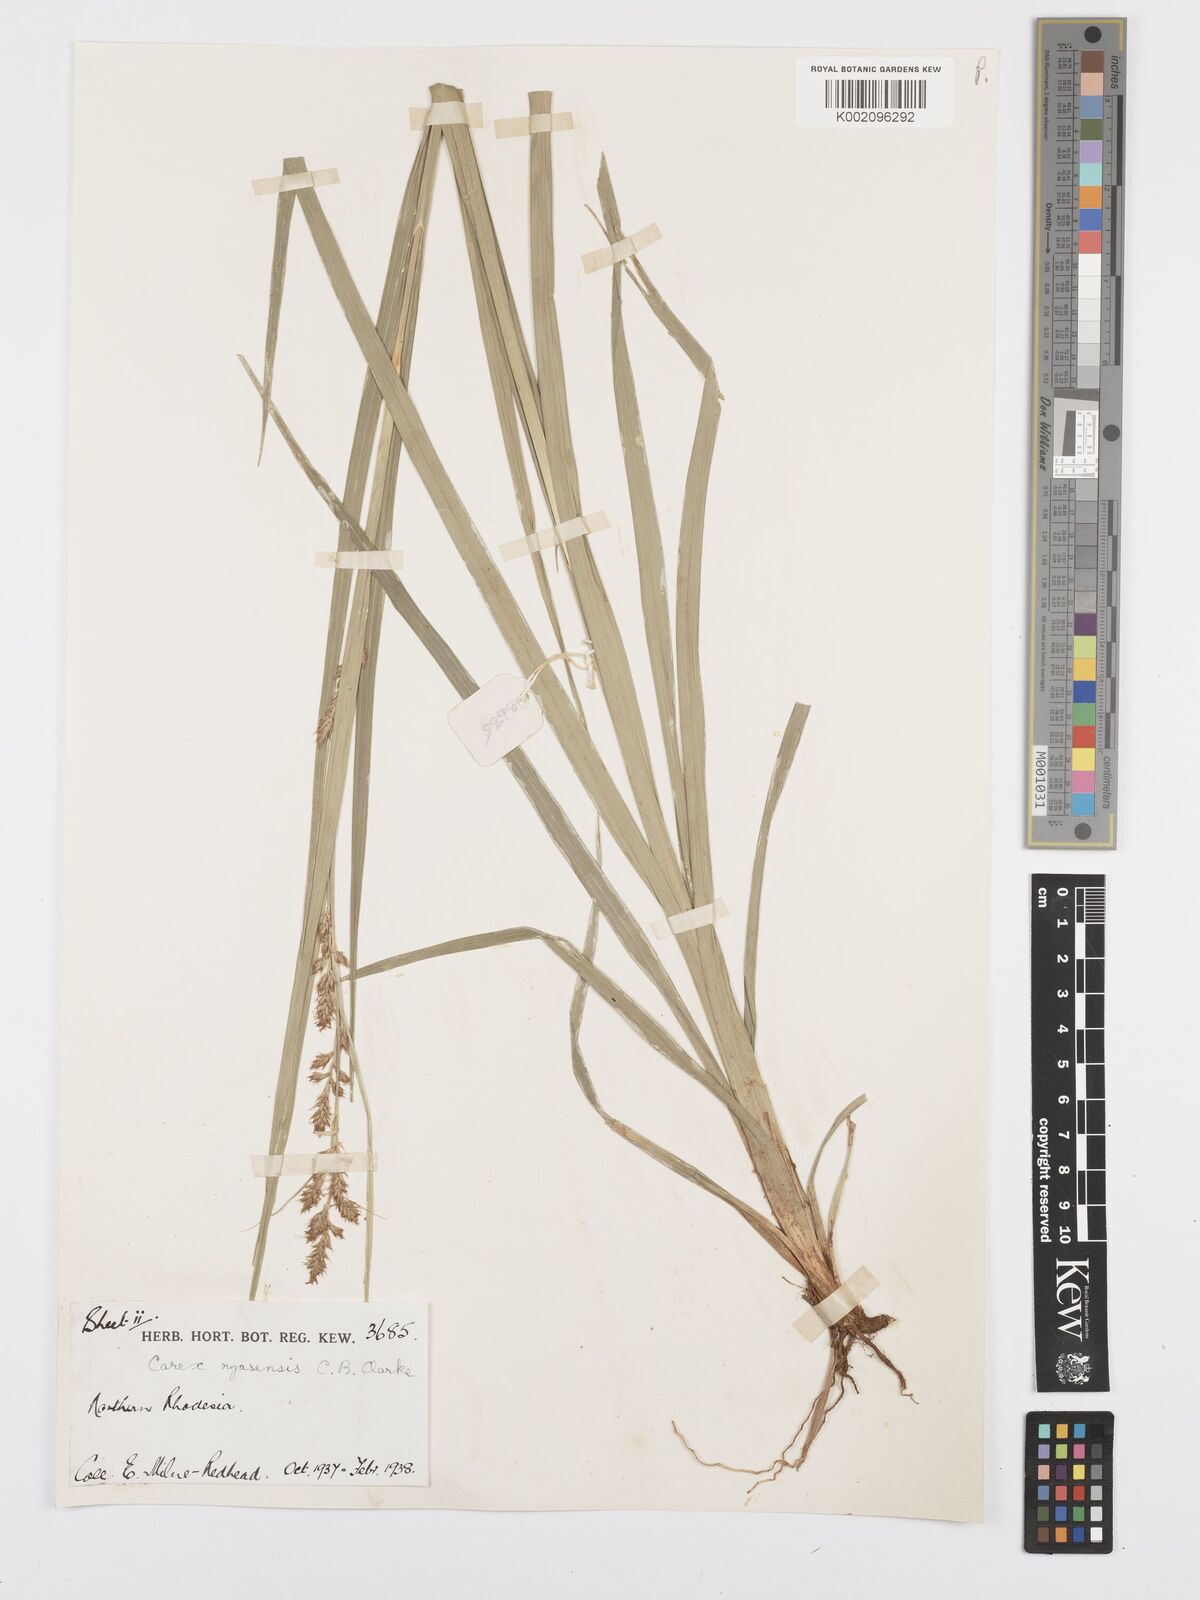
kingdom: Plantae
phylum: Tracheophyta
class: Liliopsida
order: Poales
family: Cyperaceae
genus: Carex
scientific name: Carex spicatopaniculata
